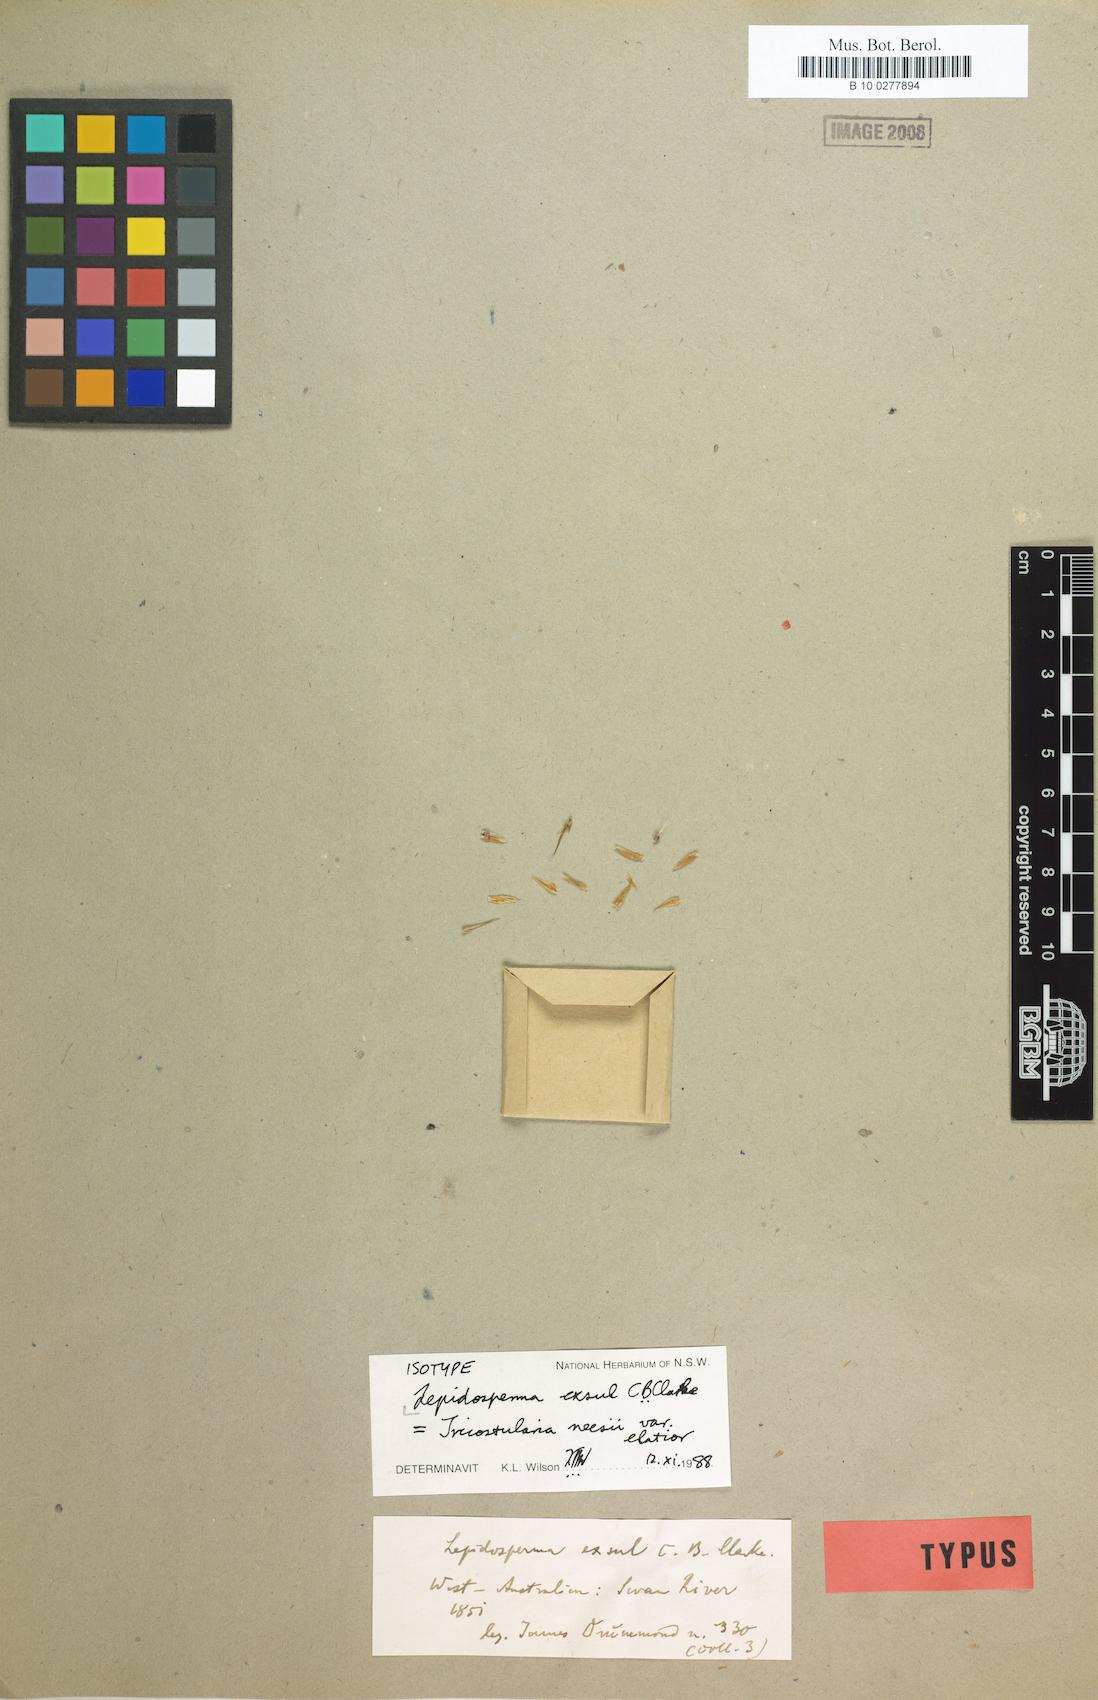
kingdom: Plantae
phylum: Tracheophyta
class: Liliopsida
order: Poales
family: Cyperaceae
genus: Lepidosperma
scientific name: Lepidosperma exsul
